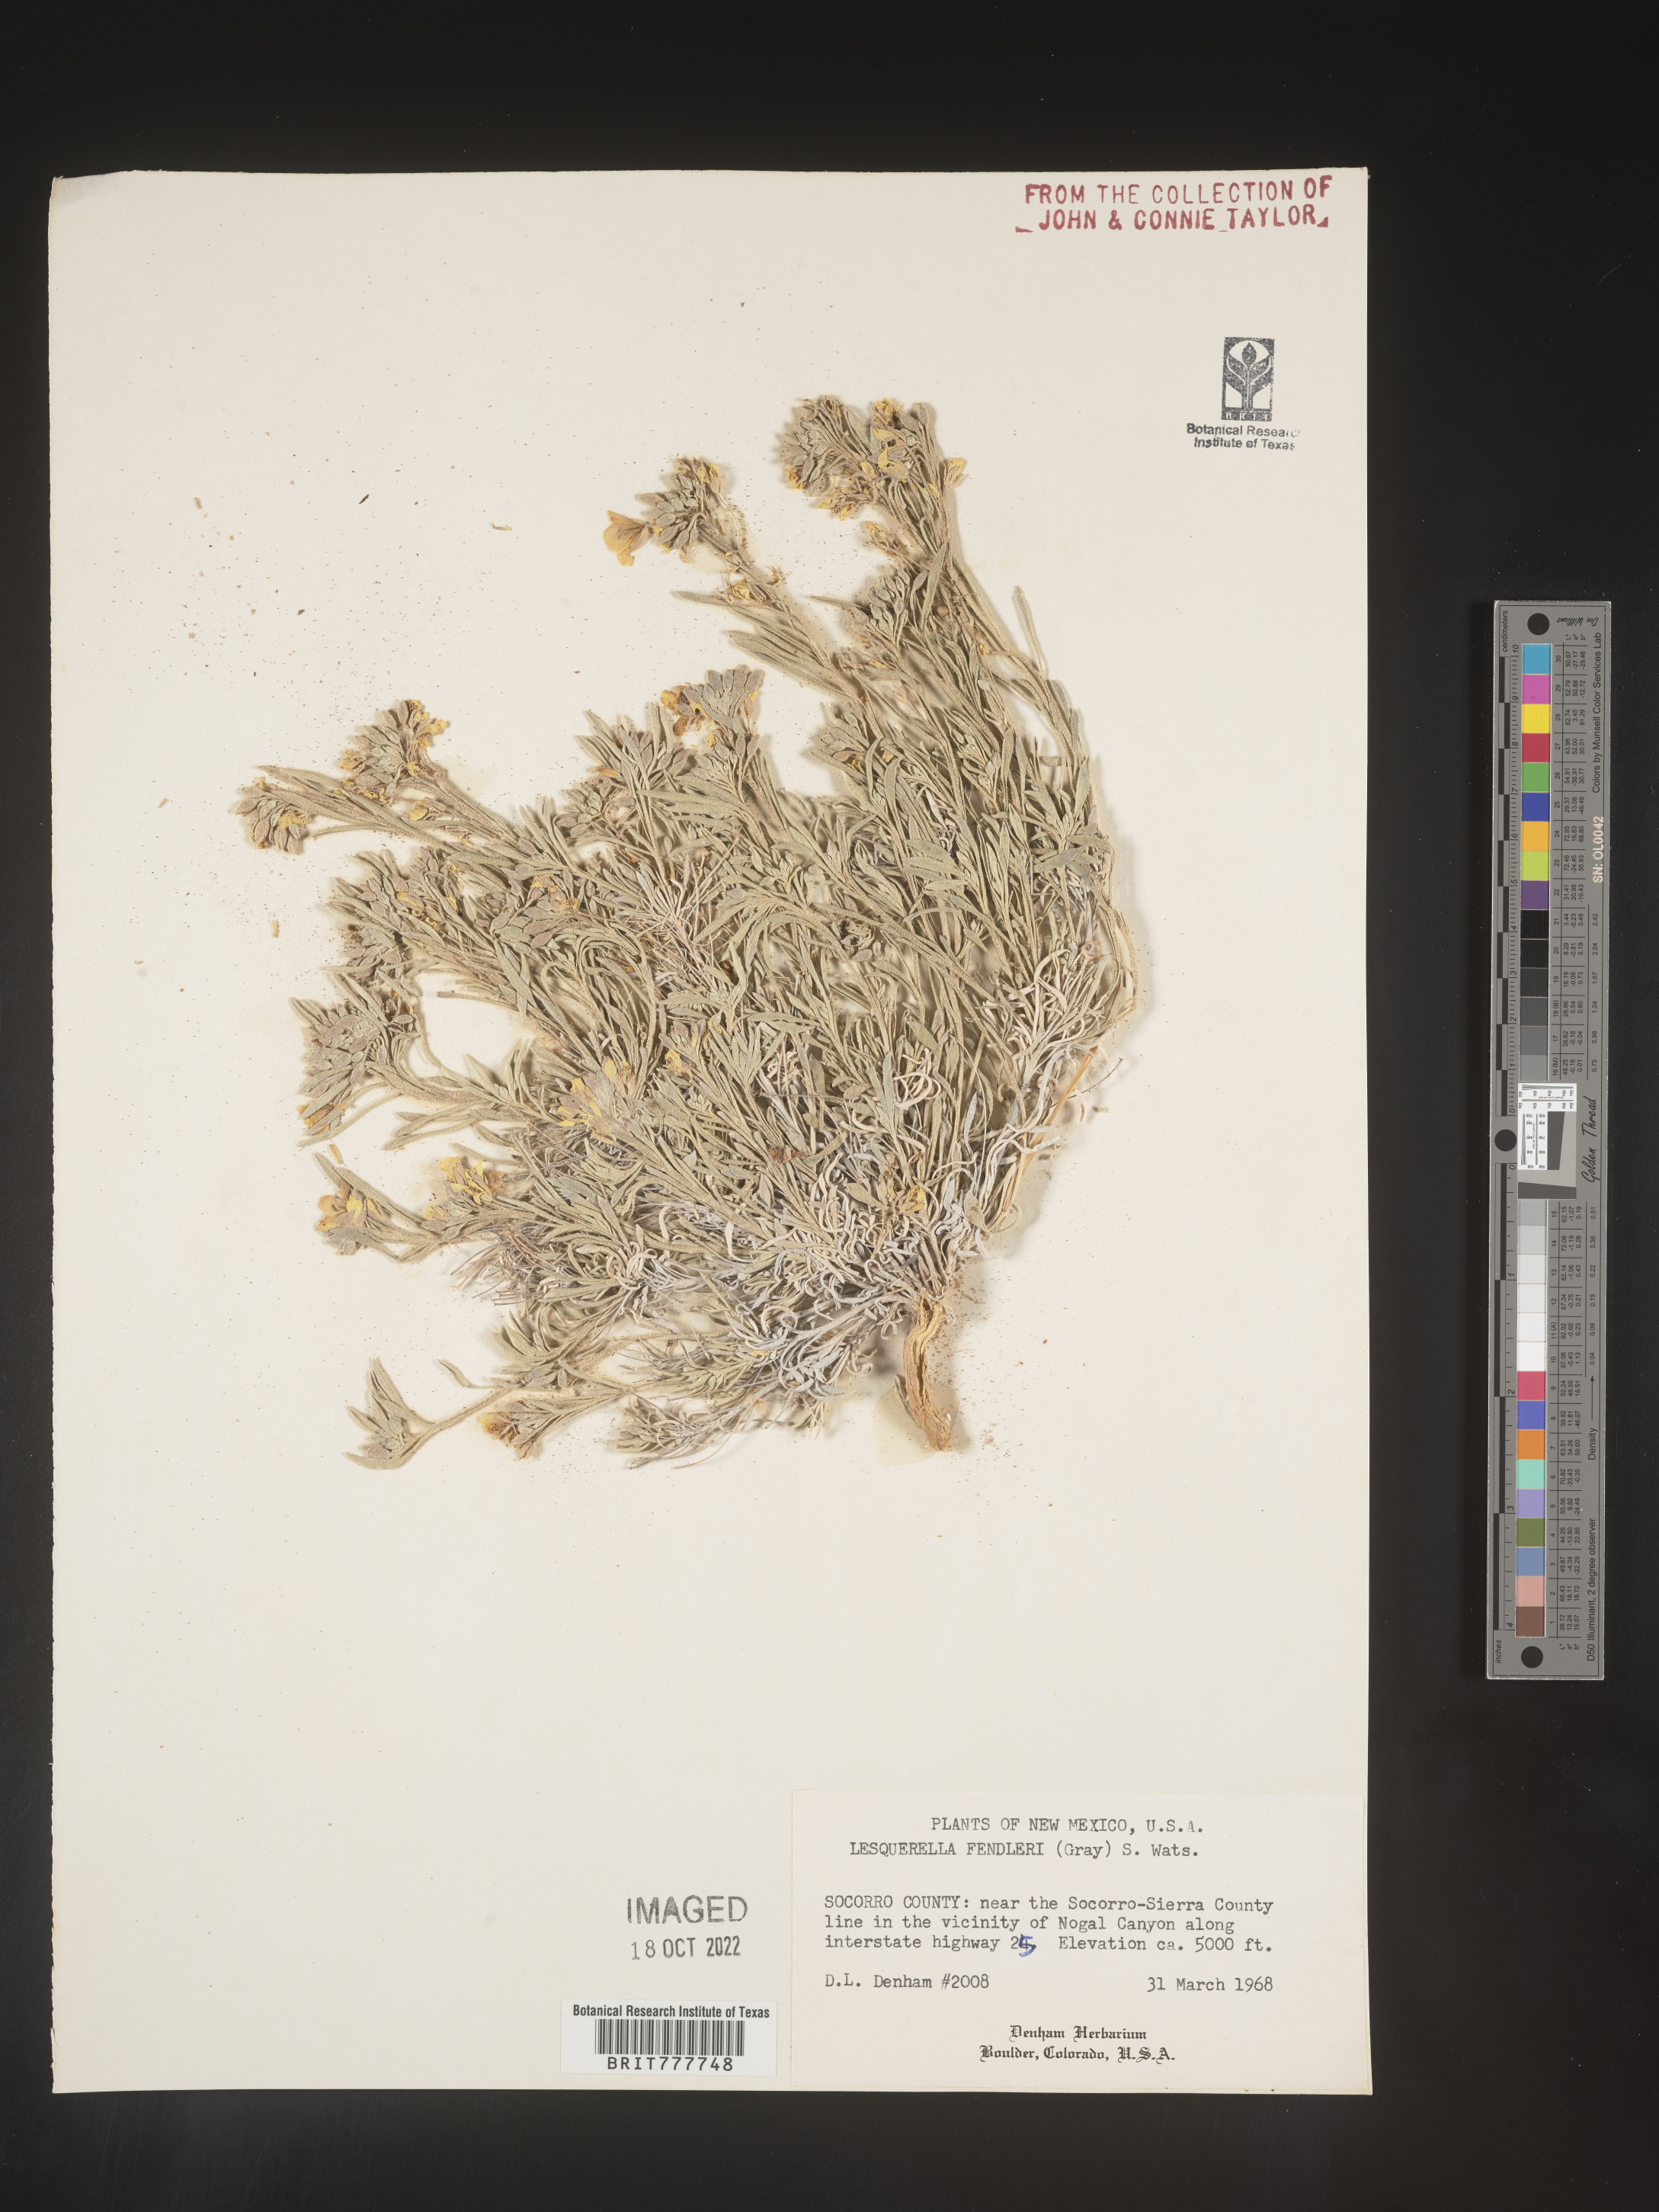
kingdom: Plantae
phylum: Tracheophyta
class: Magnoliopsida
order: Brassicales
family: Brassicaceae
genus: Physaria
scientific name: Physaria fendleri
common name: Fendler's bladderpod
